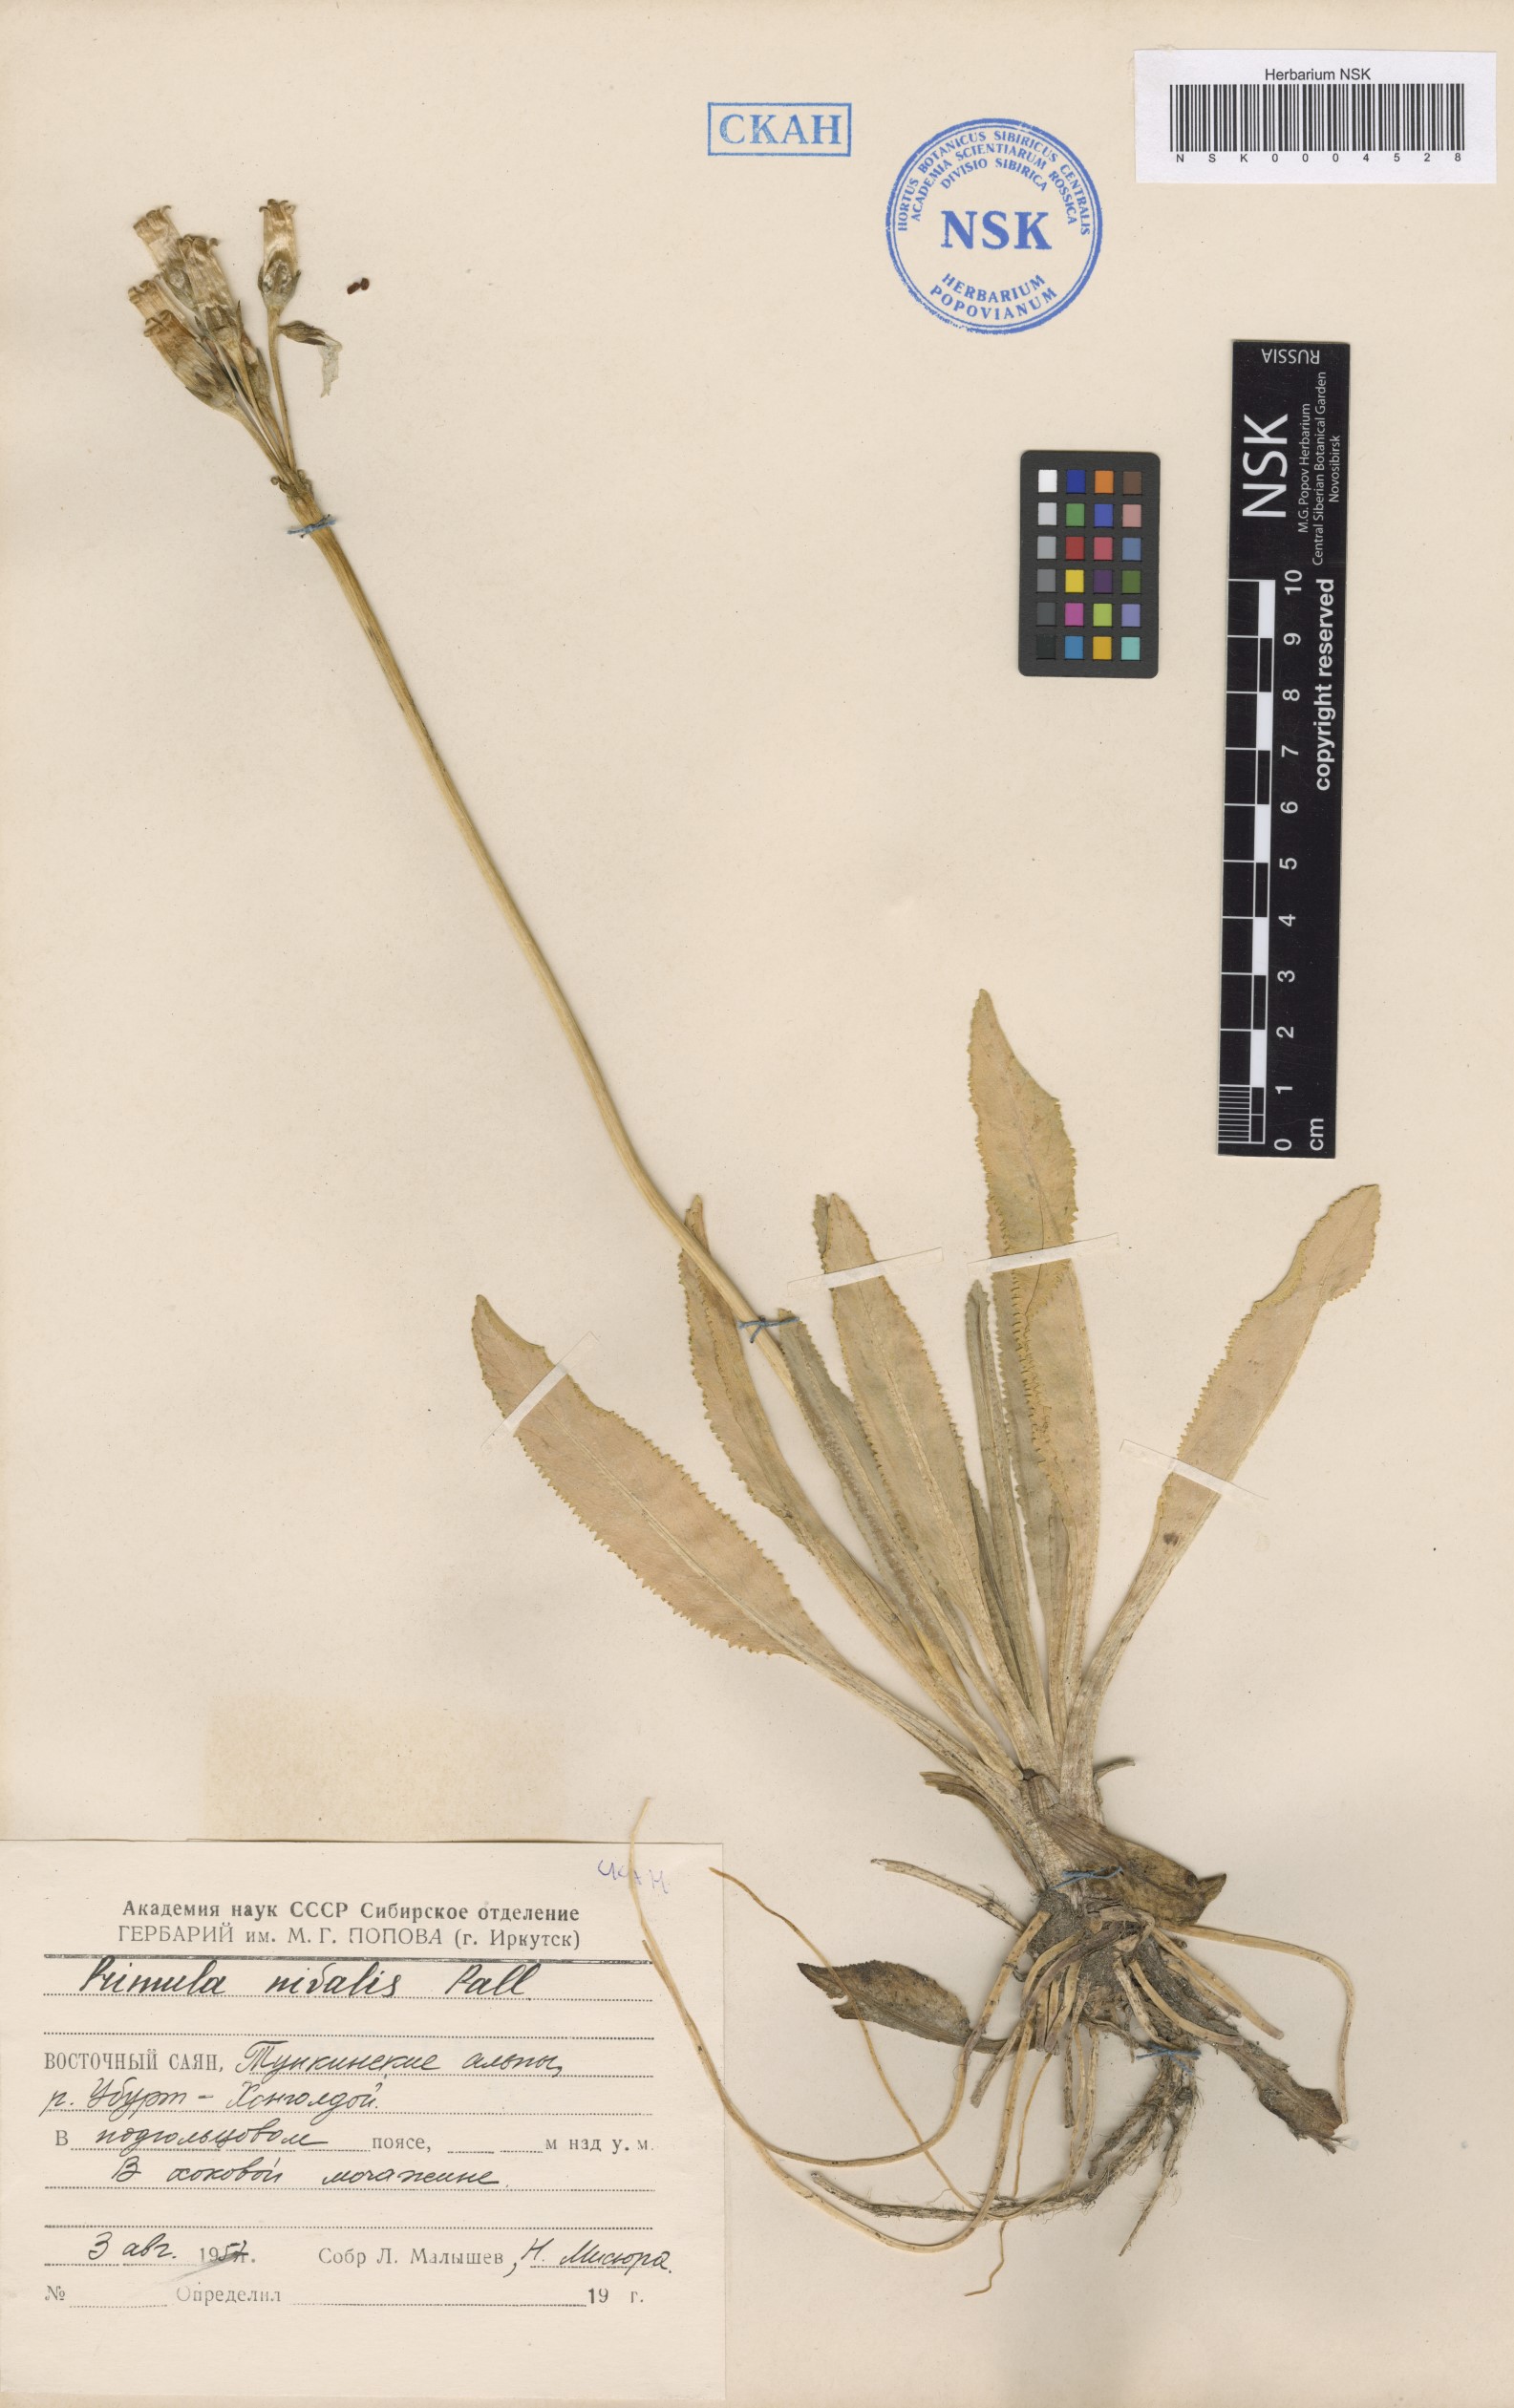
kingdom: Plantae
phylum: Tracheophyta
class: Magnoliopsida
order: Ericales
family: Primulaceae
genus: Primula
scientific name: Primula nivalis
